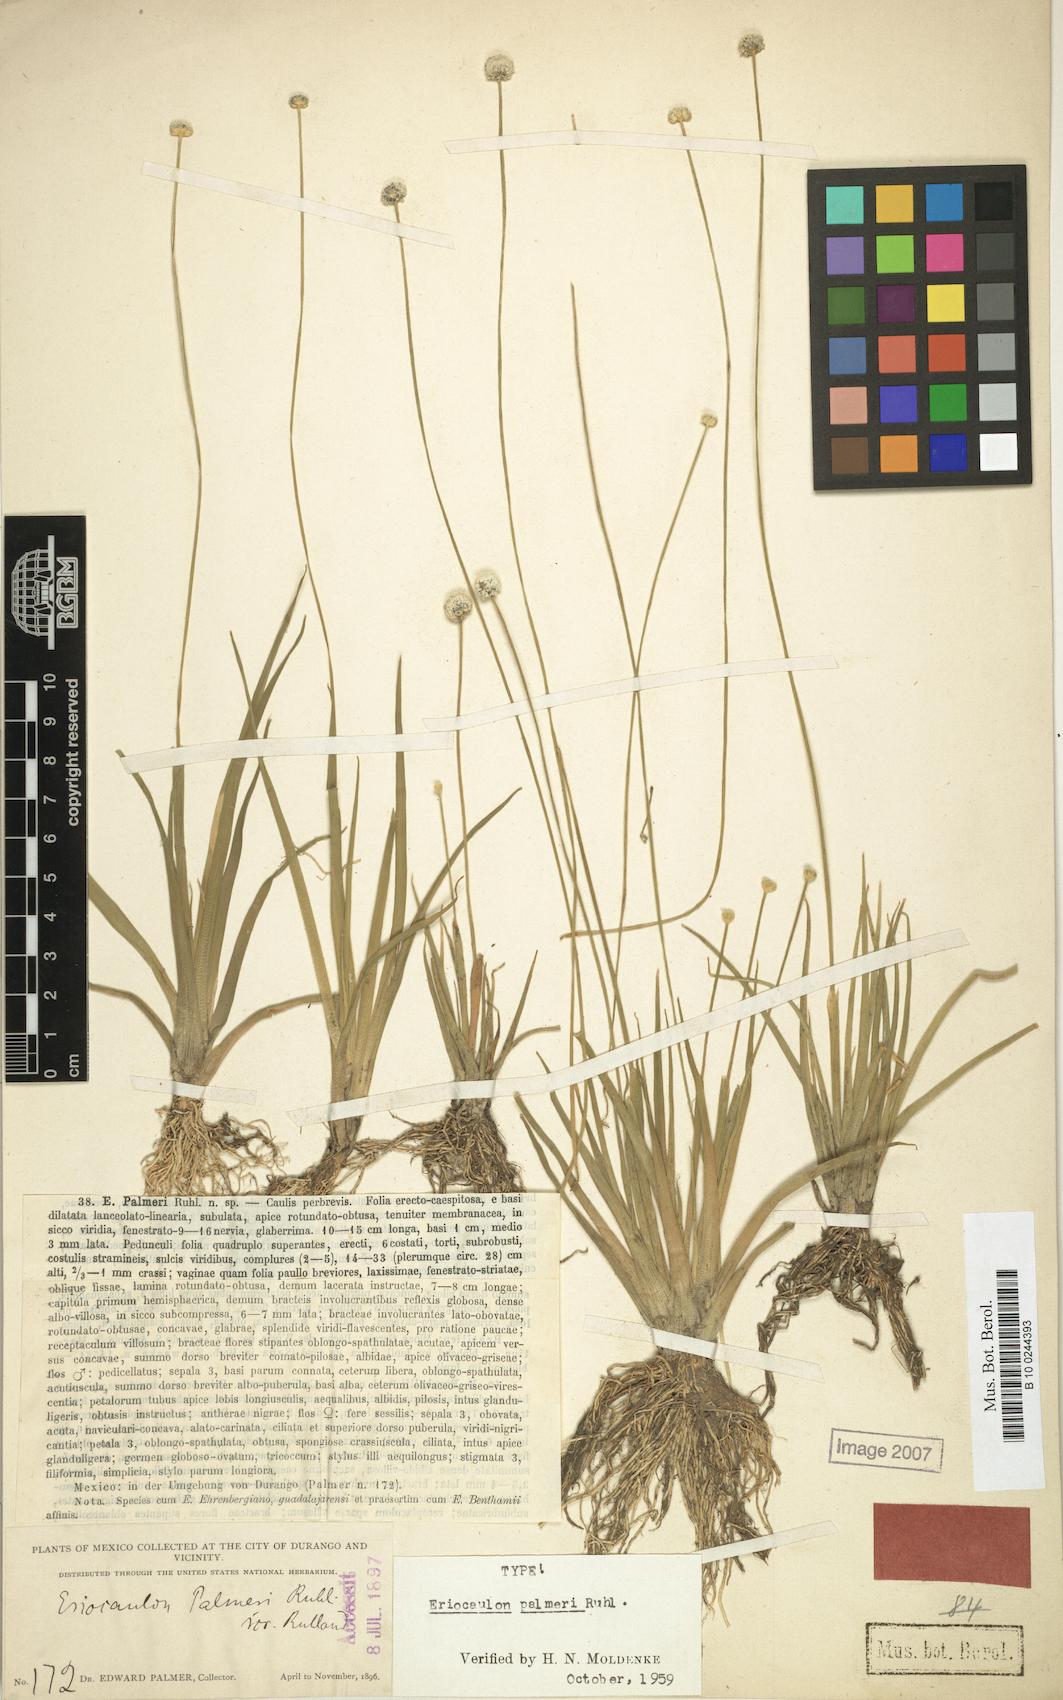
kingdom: Plantae
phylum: Tracheophyta
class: Liliopsida
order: Poales
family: Eriocaulaceae
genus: Eriocaulon
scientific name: Eriocaulon benthamii
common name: Bentham's pipewort
